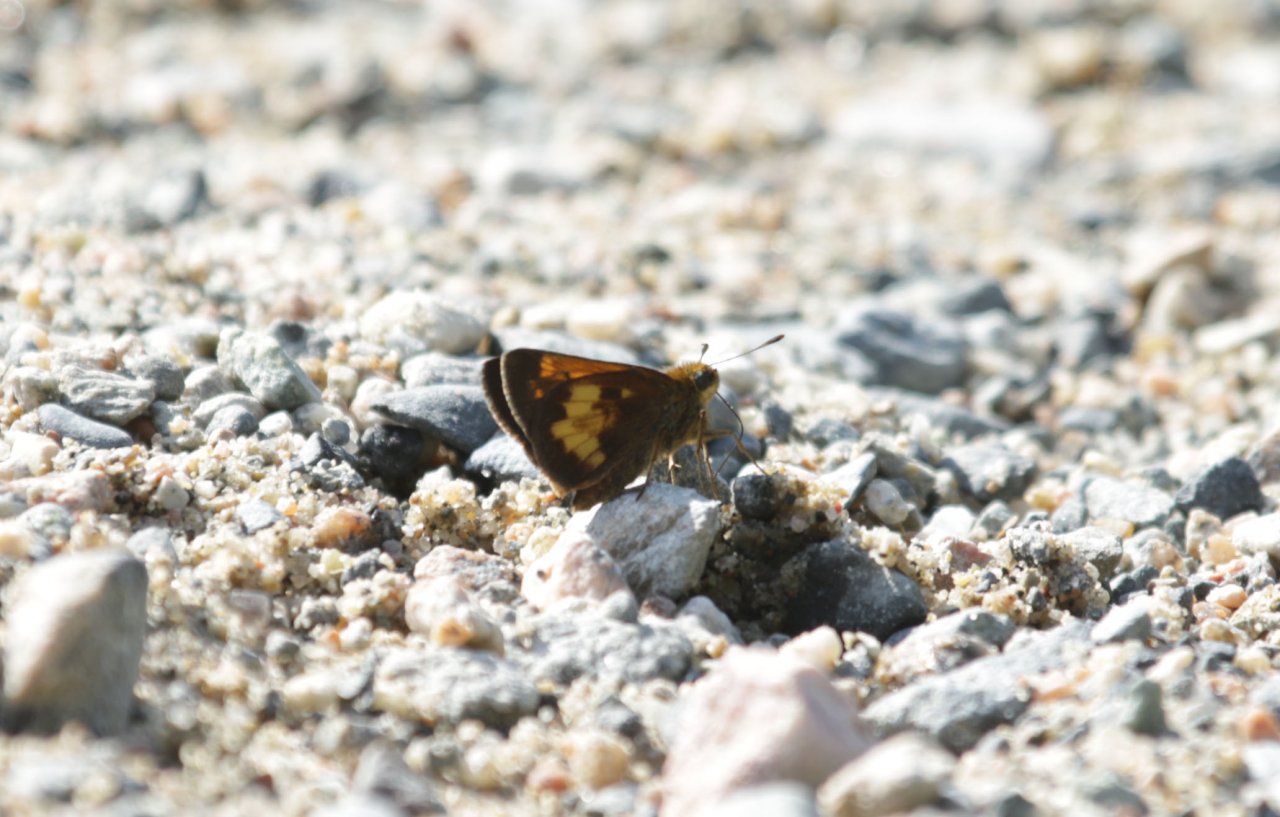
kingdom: Animalia
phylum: Arthropoda
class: Insecta
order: Lepidoptera
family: Hesperiidae
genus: Lon
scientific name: Lon hobomok
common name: Hobomok Skipper
